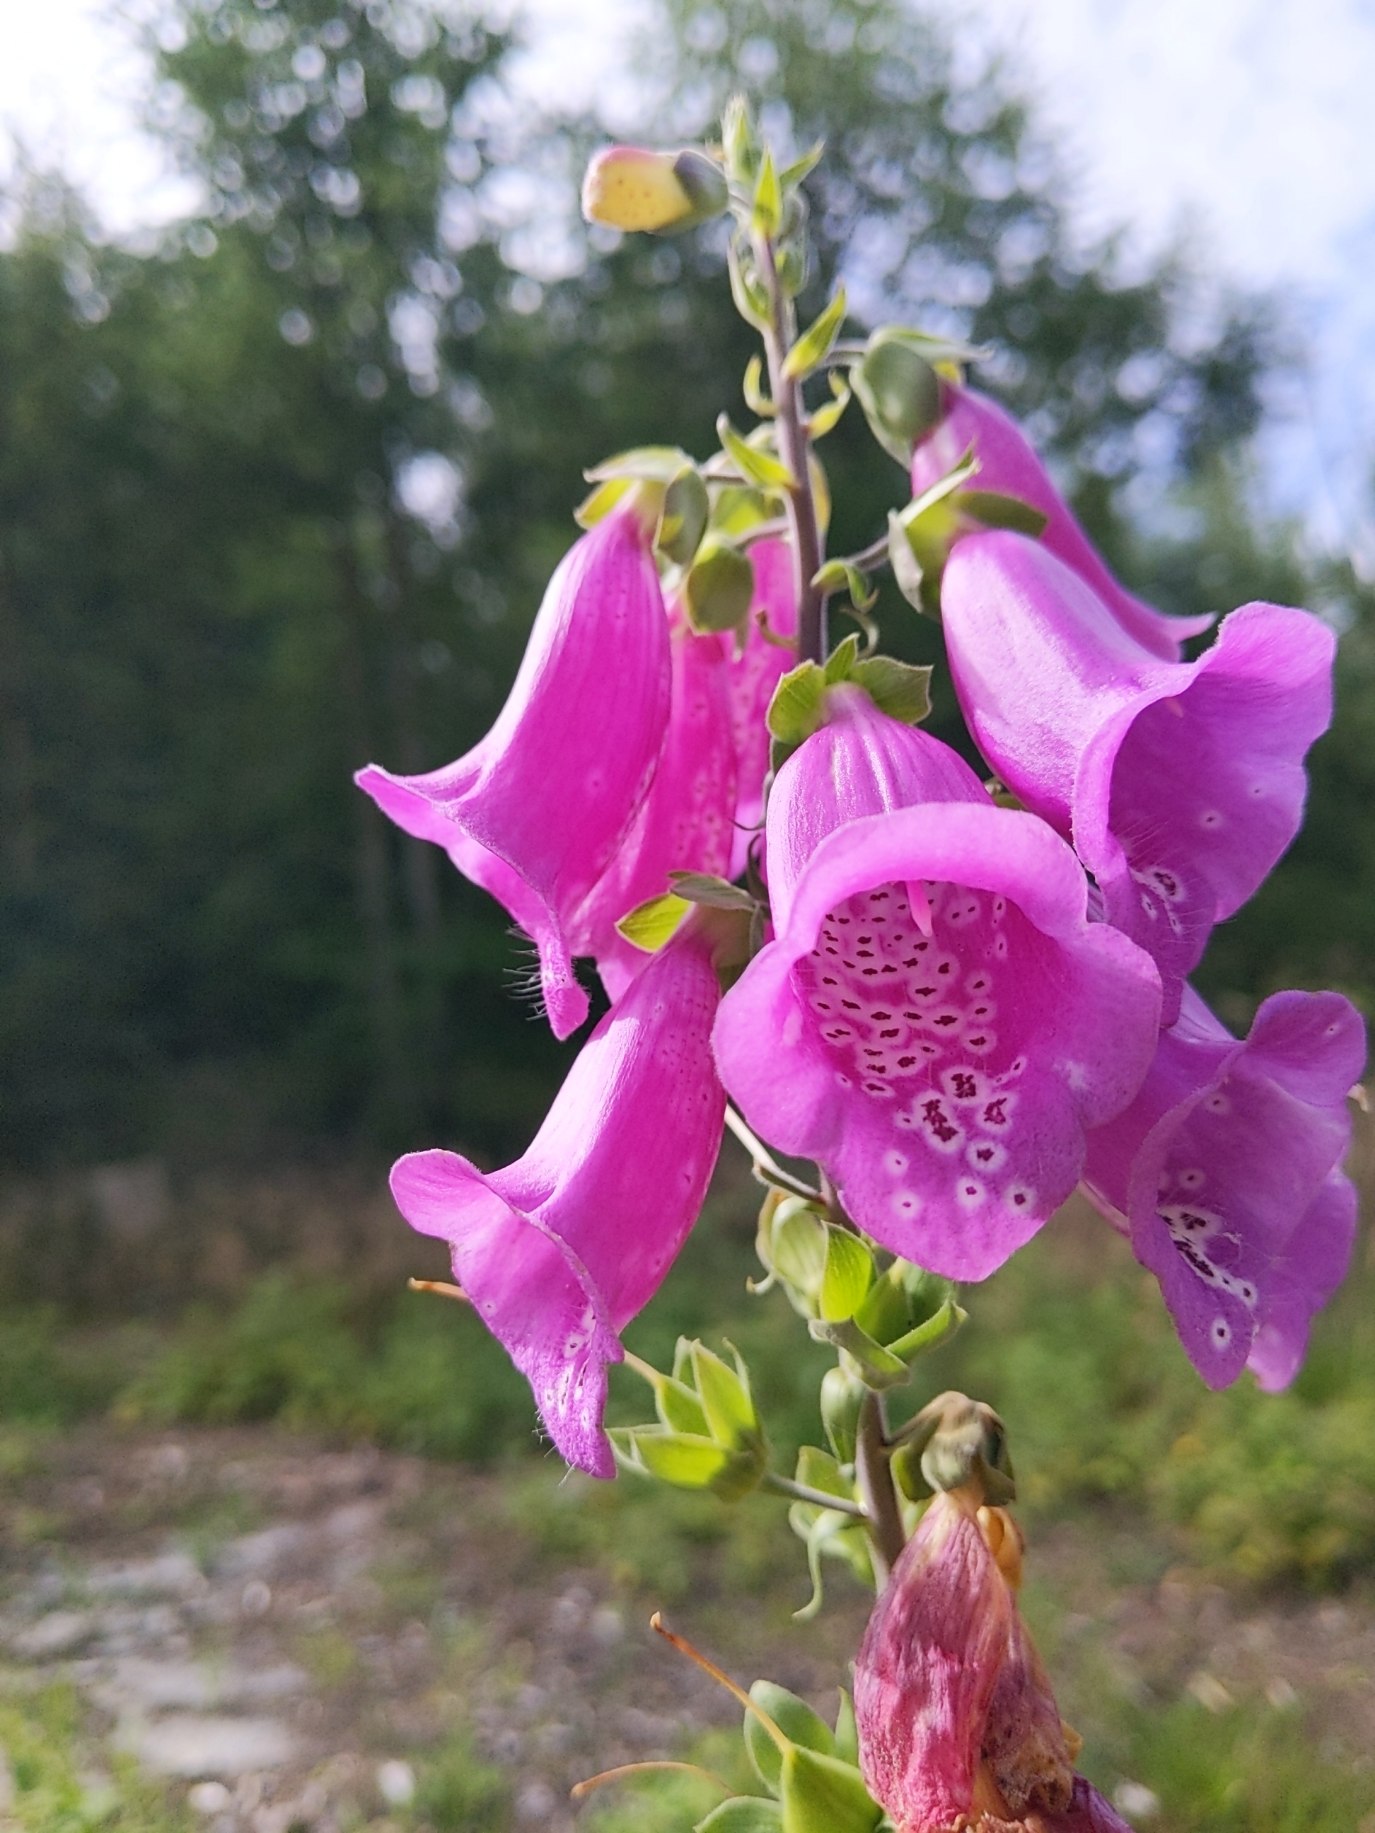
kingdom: Plantae
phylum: Tracheophyta
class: Magnoliopsida
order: Lamiales
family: Plantaginaceae
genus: Digitalis
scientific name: Digitalis purpurea
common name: Almindelig fingerbøl
